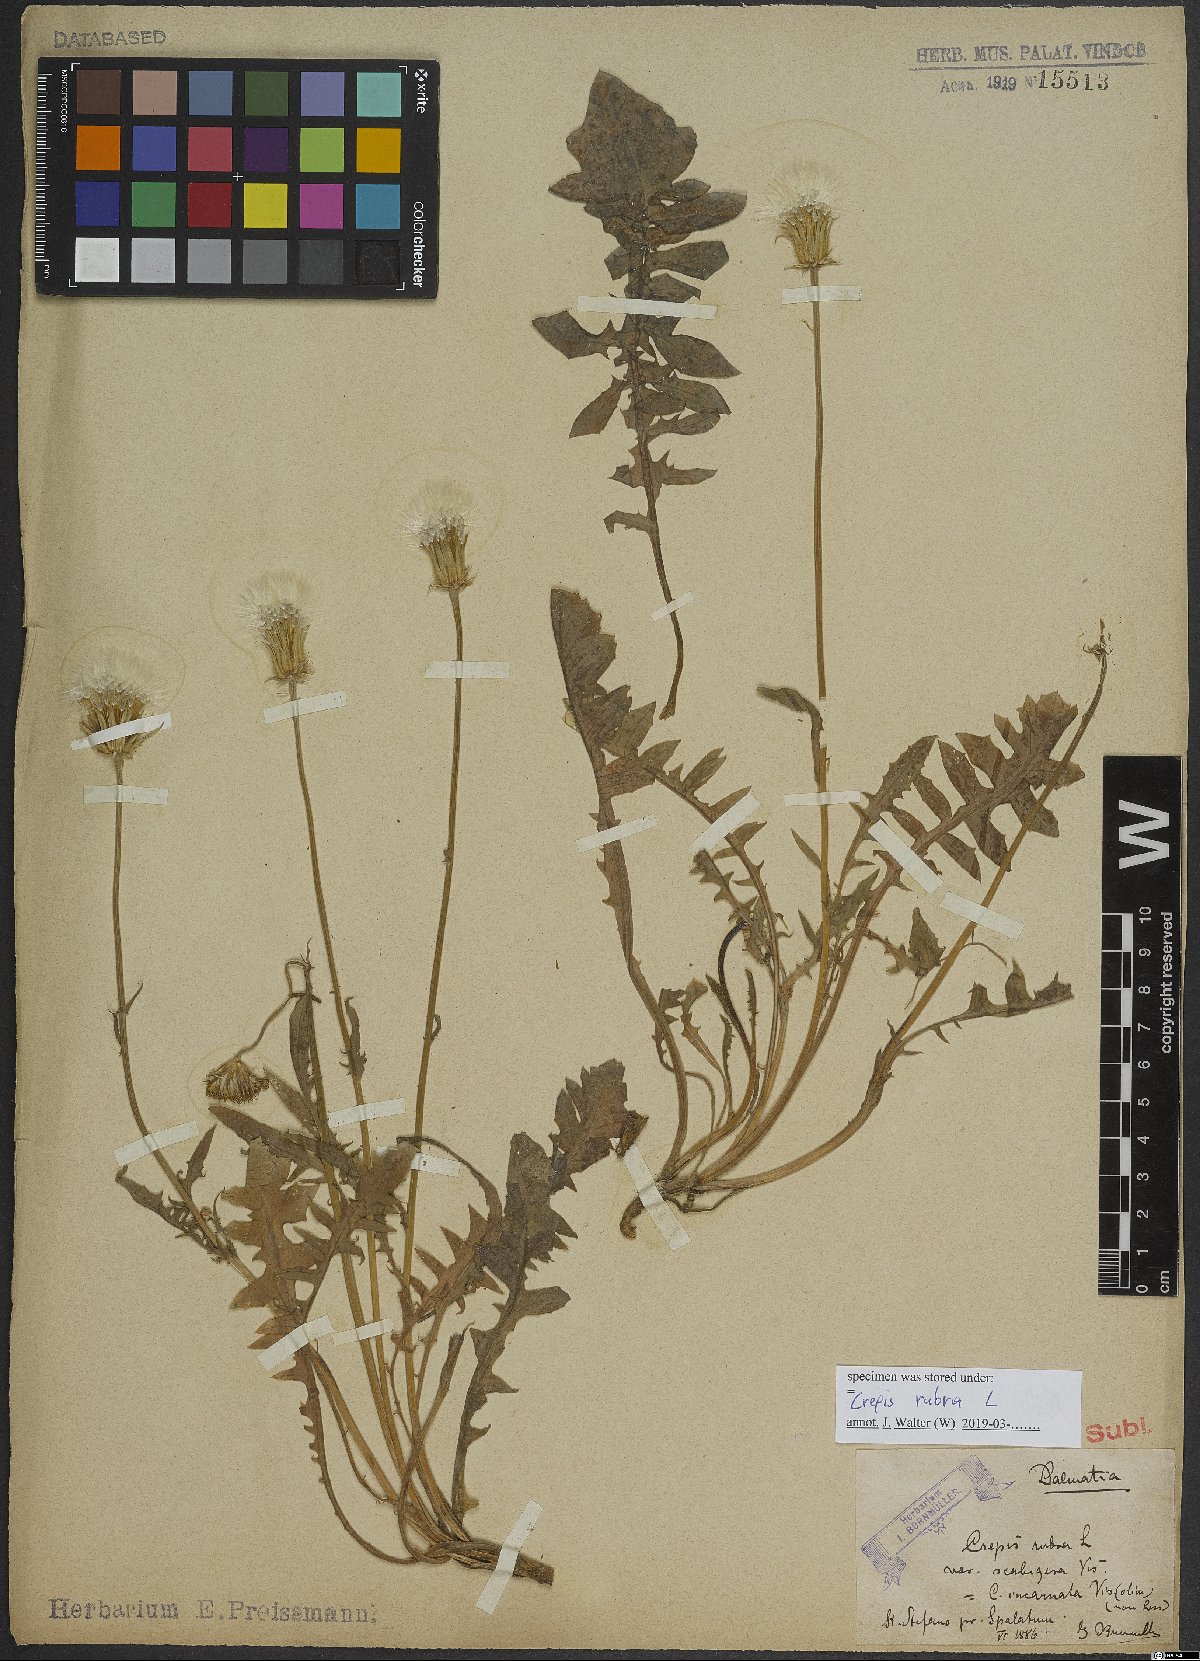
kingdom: Plantae
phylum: Tracheophyta
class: Magnoliopsida
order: Asterales
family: Asteraceae
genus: Crepis
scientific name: Crepis rubra
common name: Pink hawk's-beard
